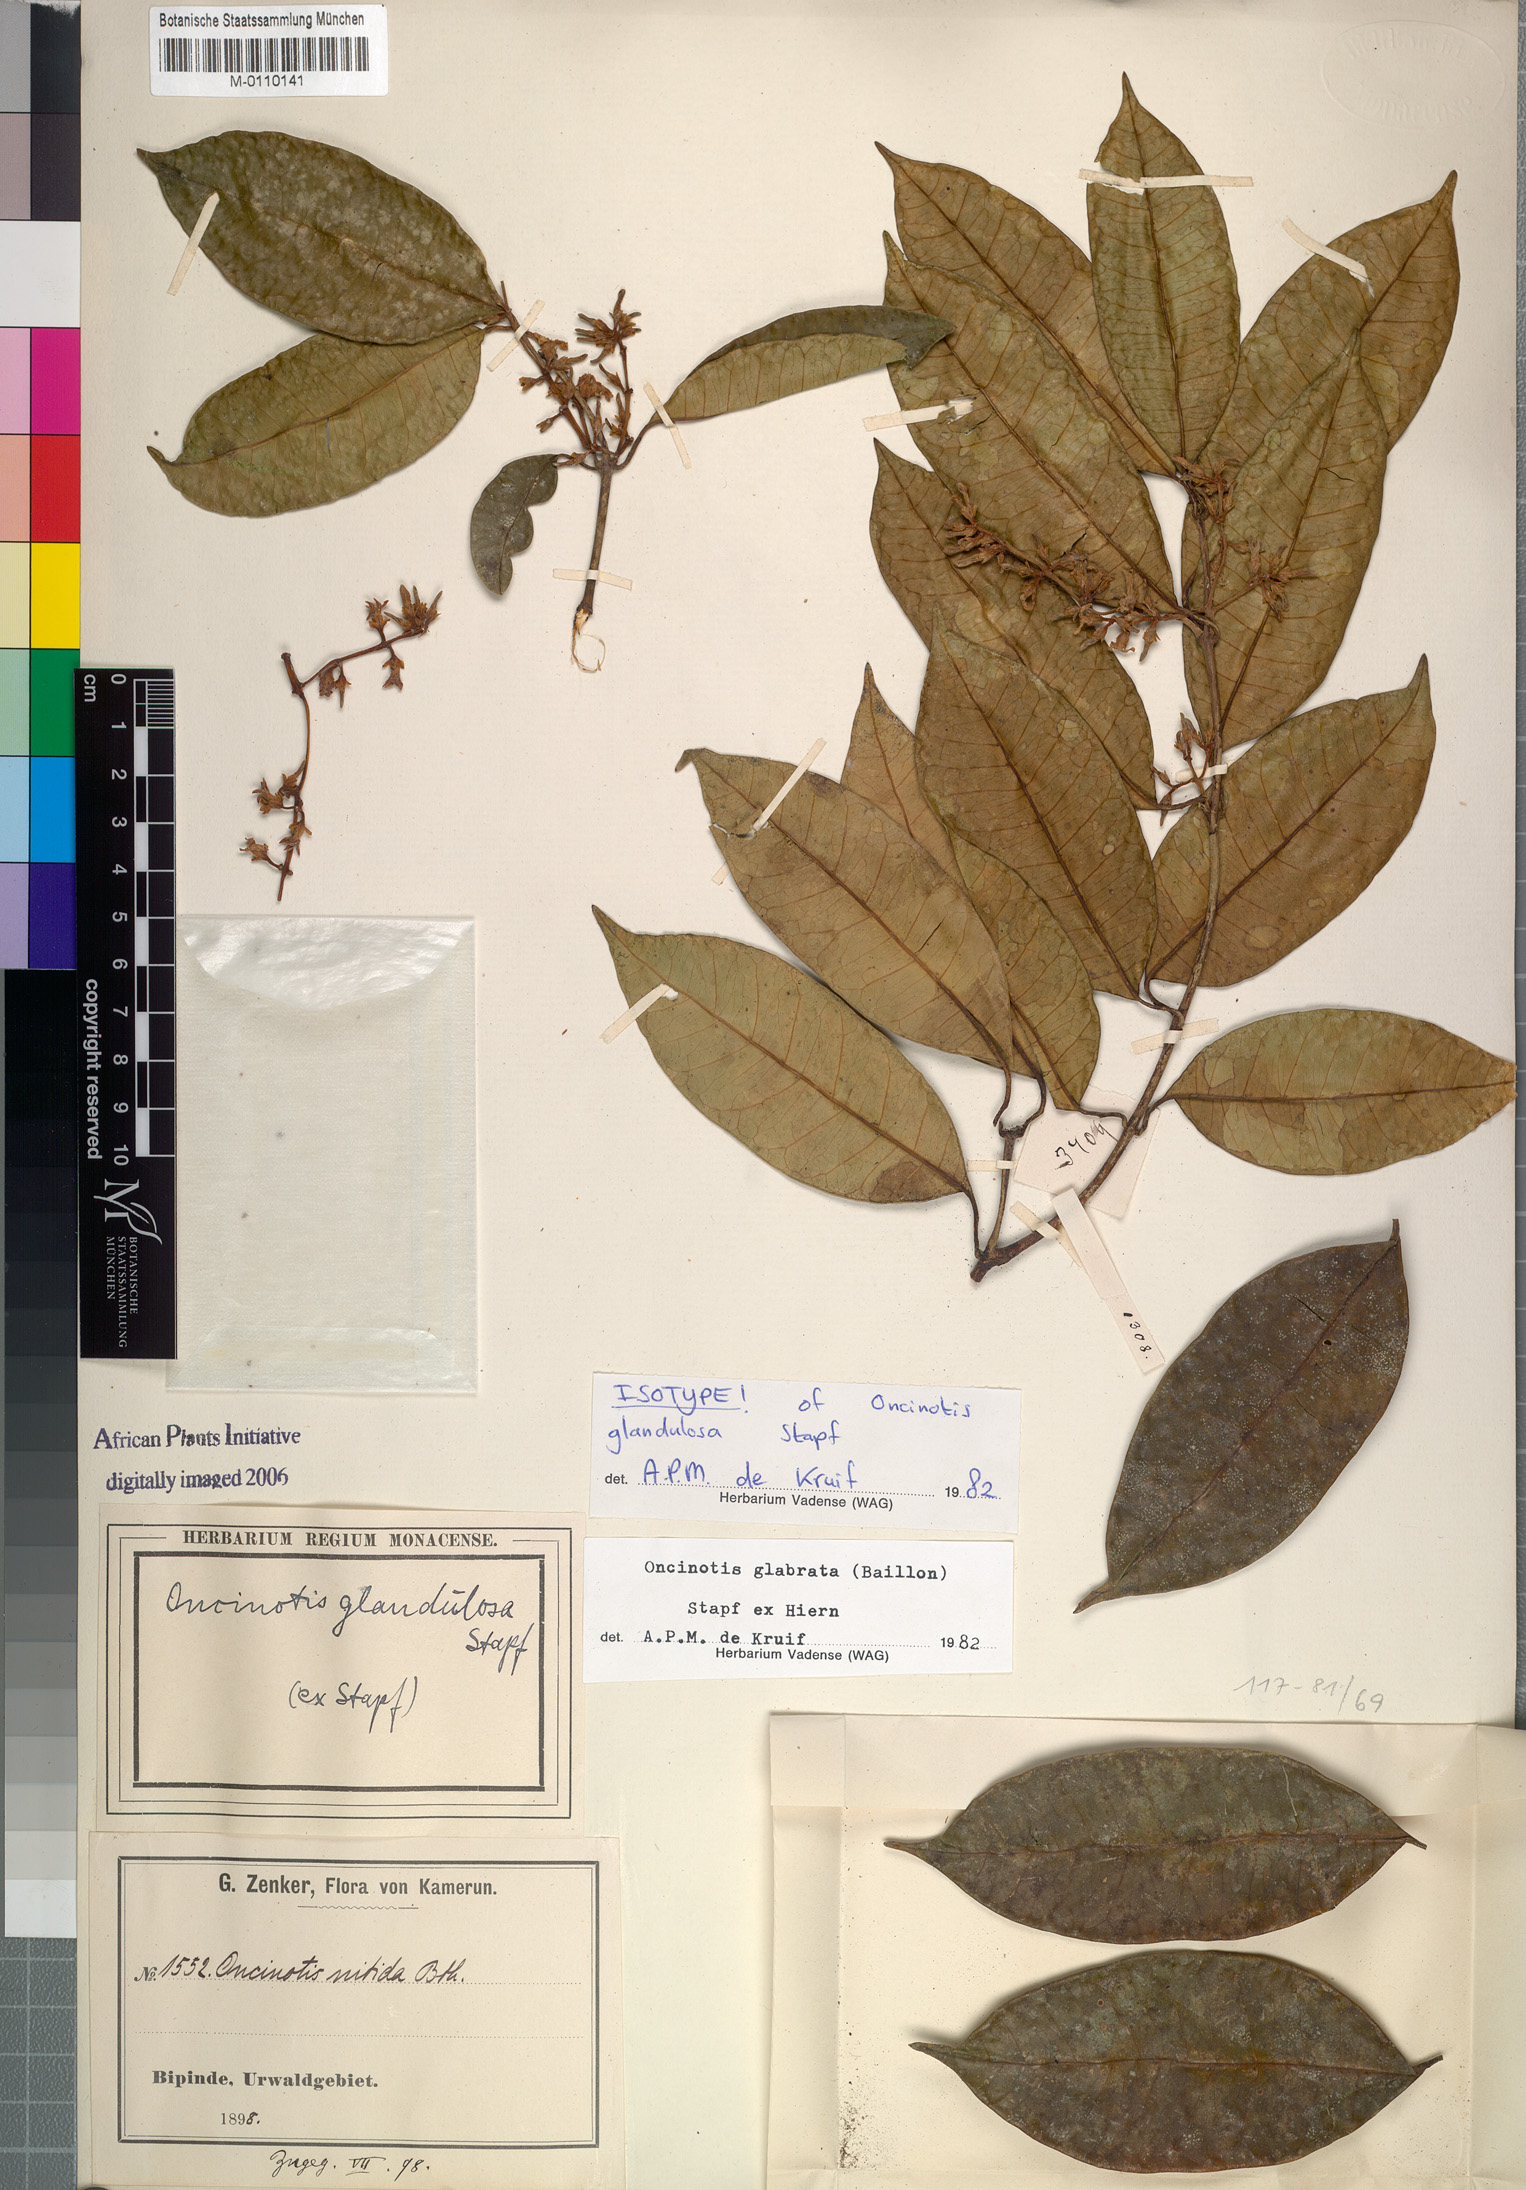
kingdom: Plantae
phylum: Tracheophyta
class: Magnoliopsida
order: Gentianales
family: Apocynaceae
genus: Oncinotis
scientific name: Oncinotis glabrata
